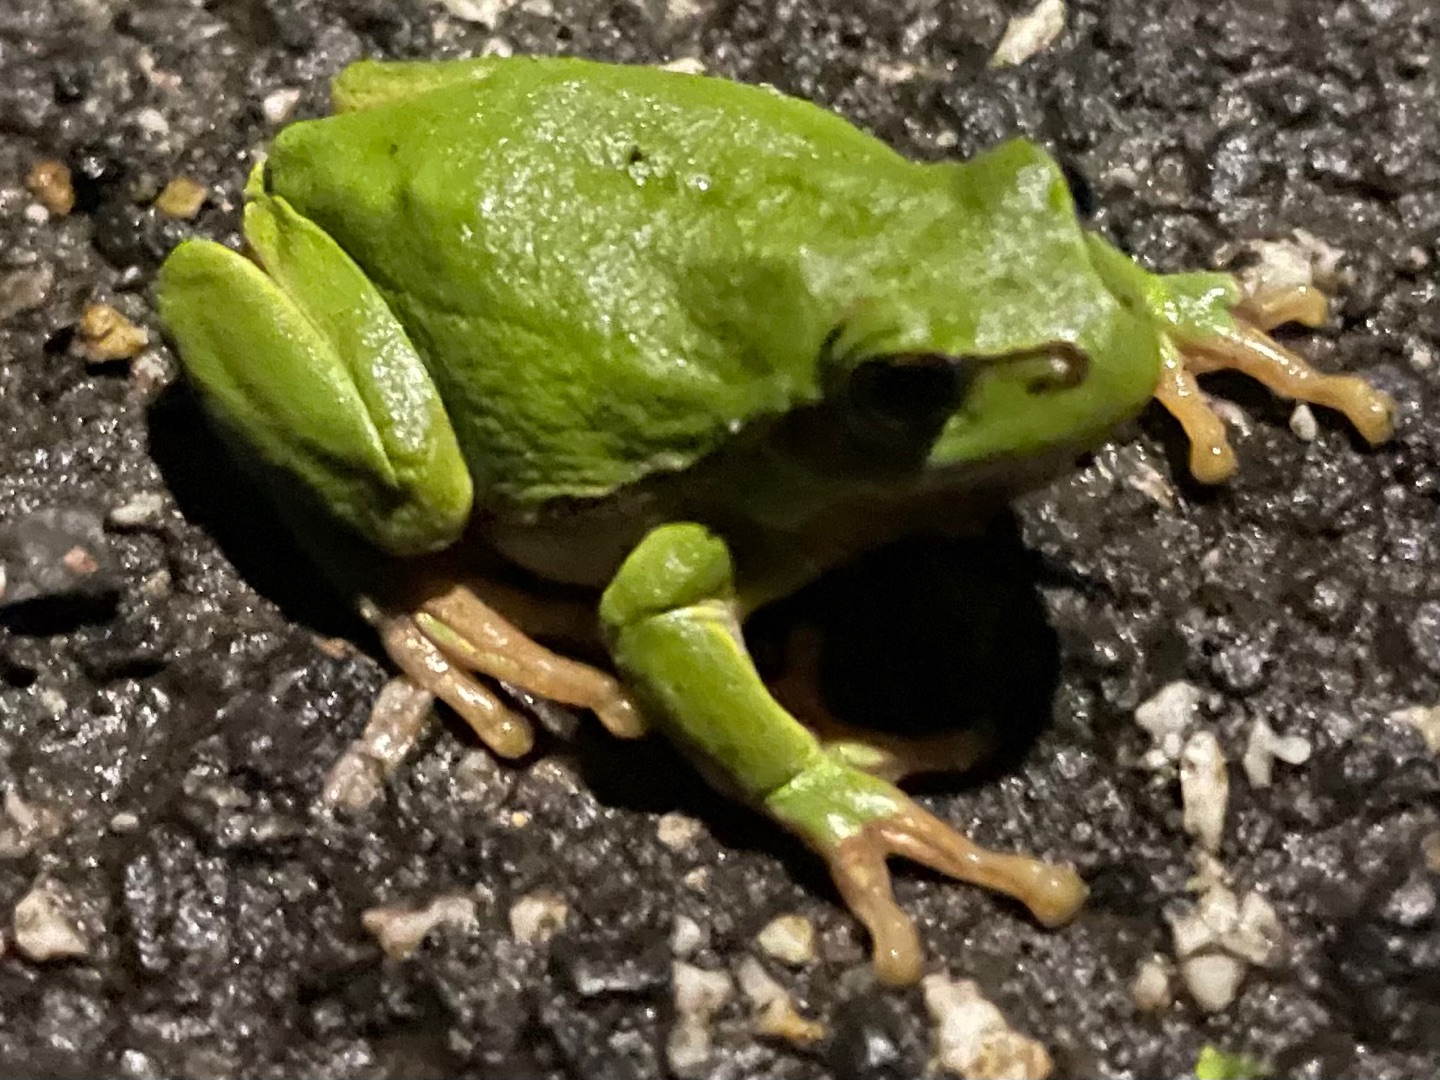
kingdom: Animalia
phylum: Chordata
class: Amphibia
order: Anura
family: Hylidae
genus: Hyla
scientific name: Hyla arborea
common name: Løvfrø
